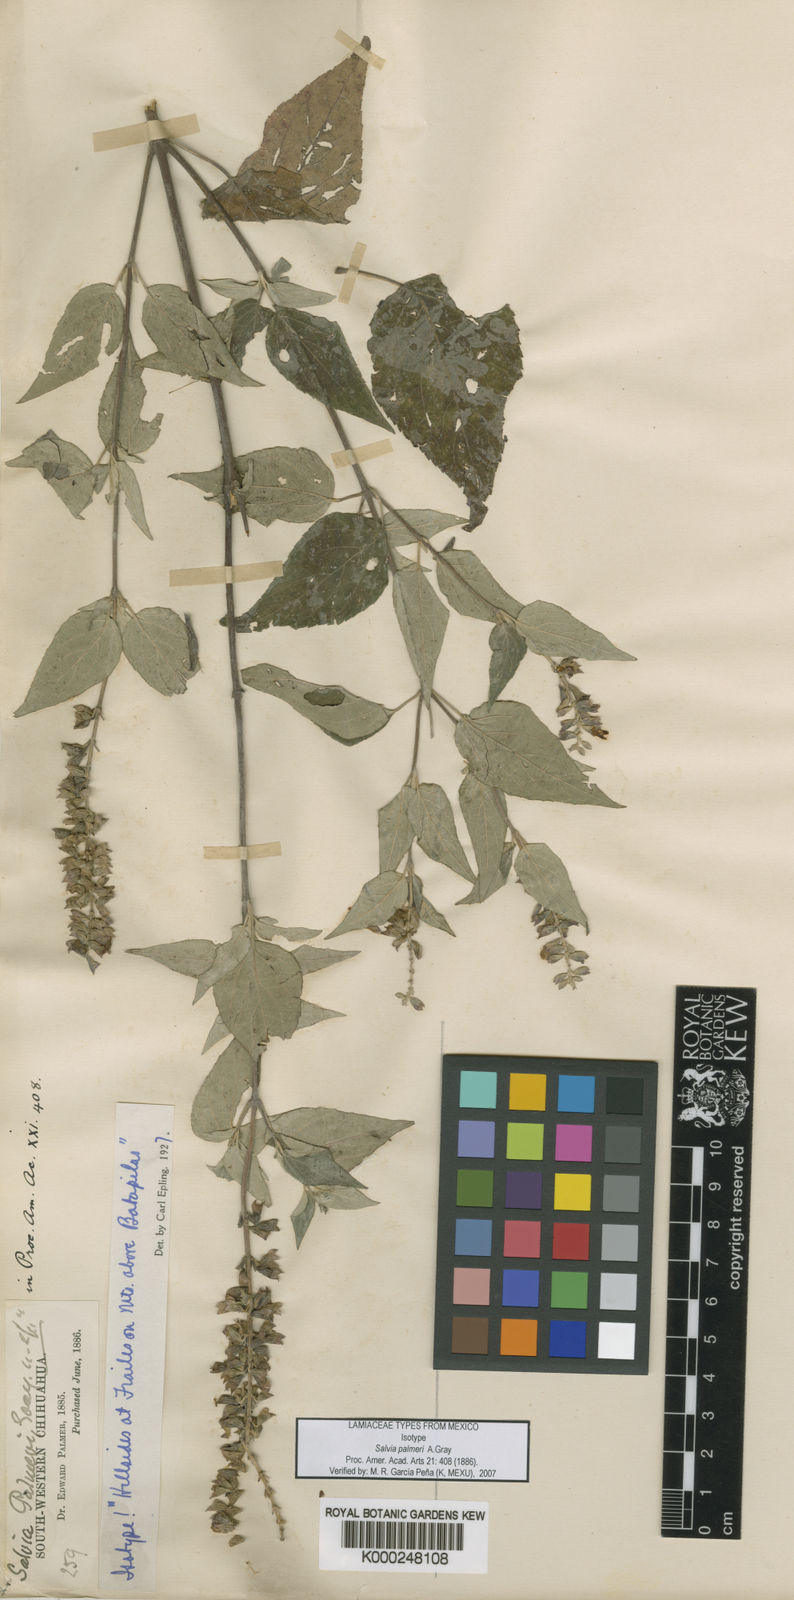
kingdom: Plantae
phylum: Tracheophyta
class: Magnoliopsida
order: Lamiales
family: Lamiaceae
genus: Salvia
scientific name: Salvia palmeri
